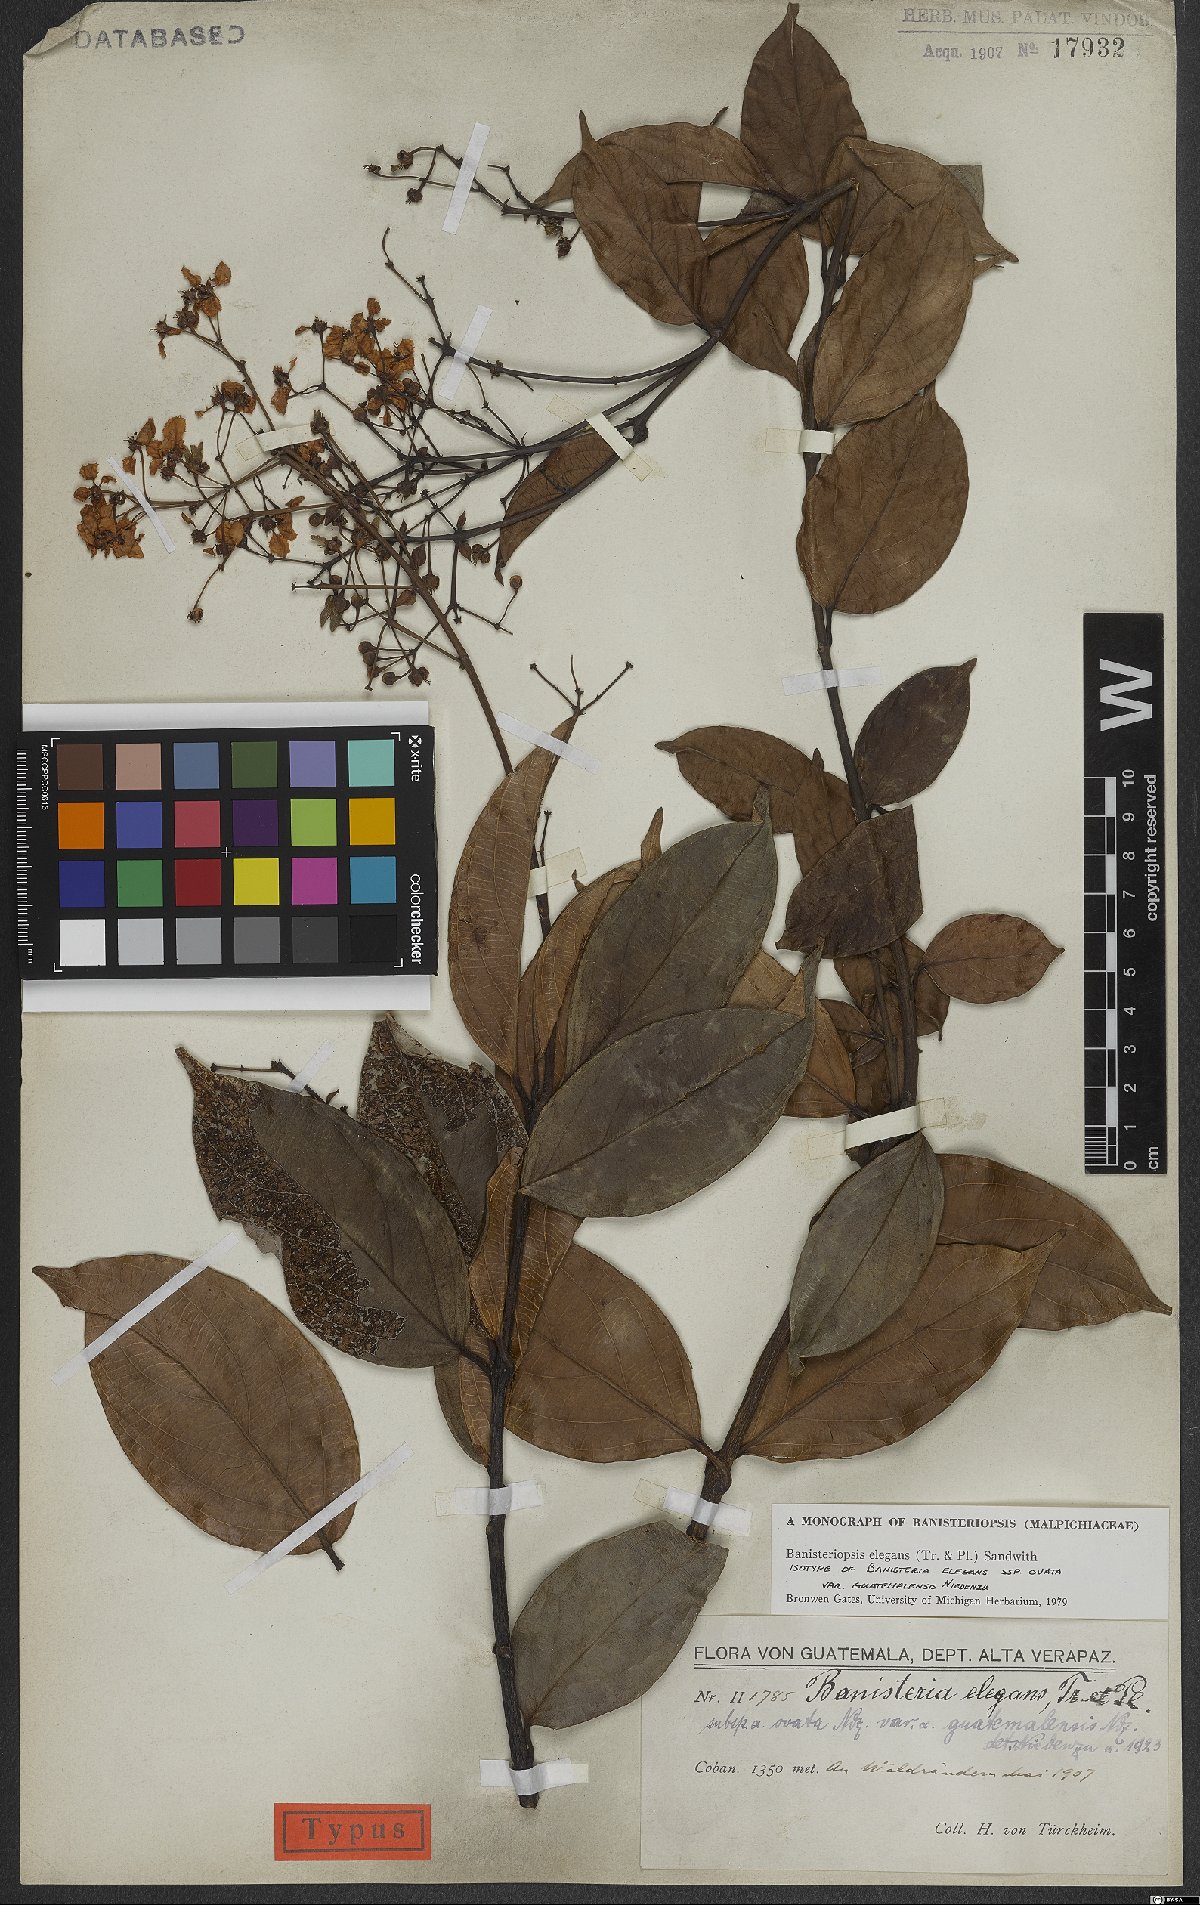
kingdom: Plantae
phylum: Tracheophyta
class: Magnoliopsida
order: Malpighiales
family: Malpighiaceae
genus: Banisteriopsis
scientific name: Banisteriopsis elegans
